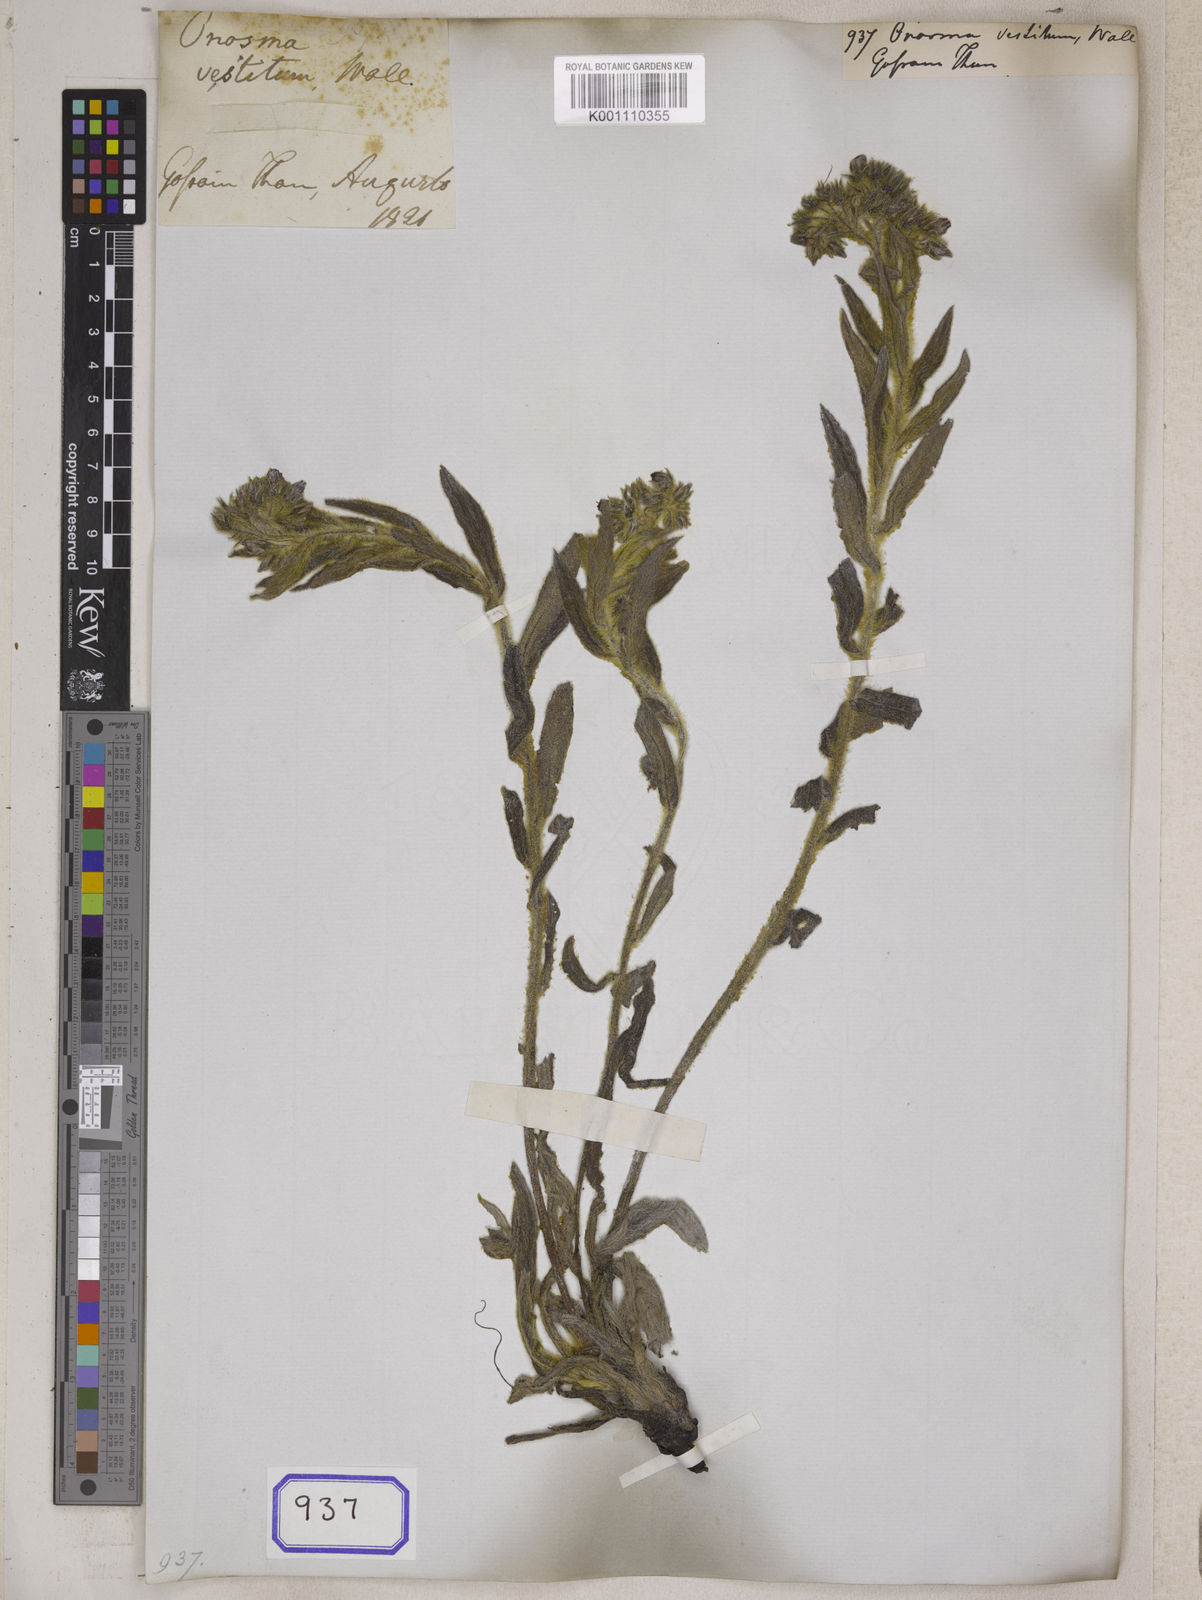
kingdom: Plantae
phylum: Tracheophyta
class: Magnoliopsida
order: Boraginales
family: Boraginaceae
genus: Onosma
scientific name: Onosma
